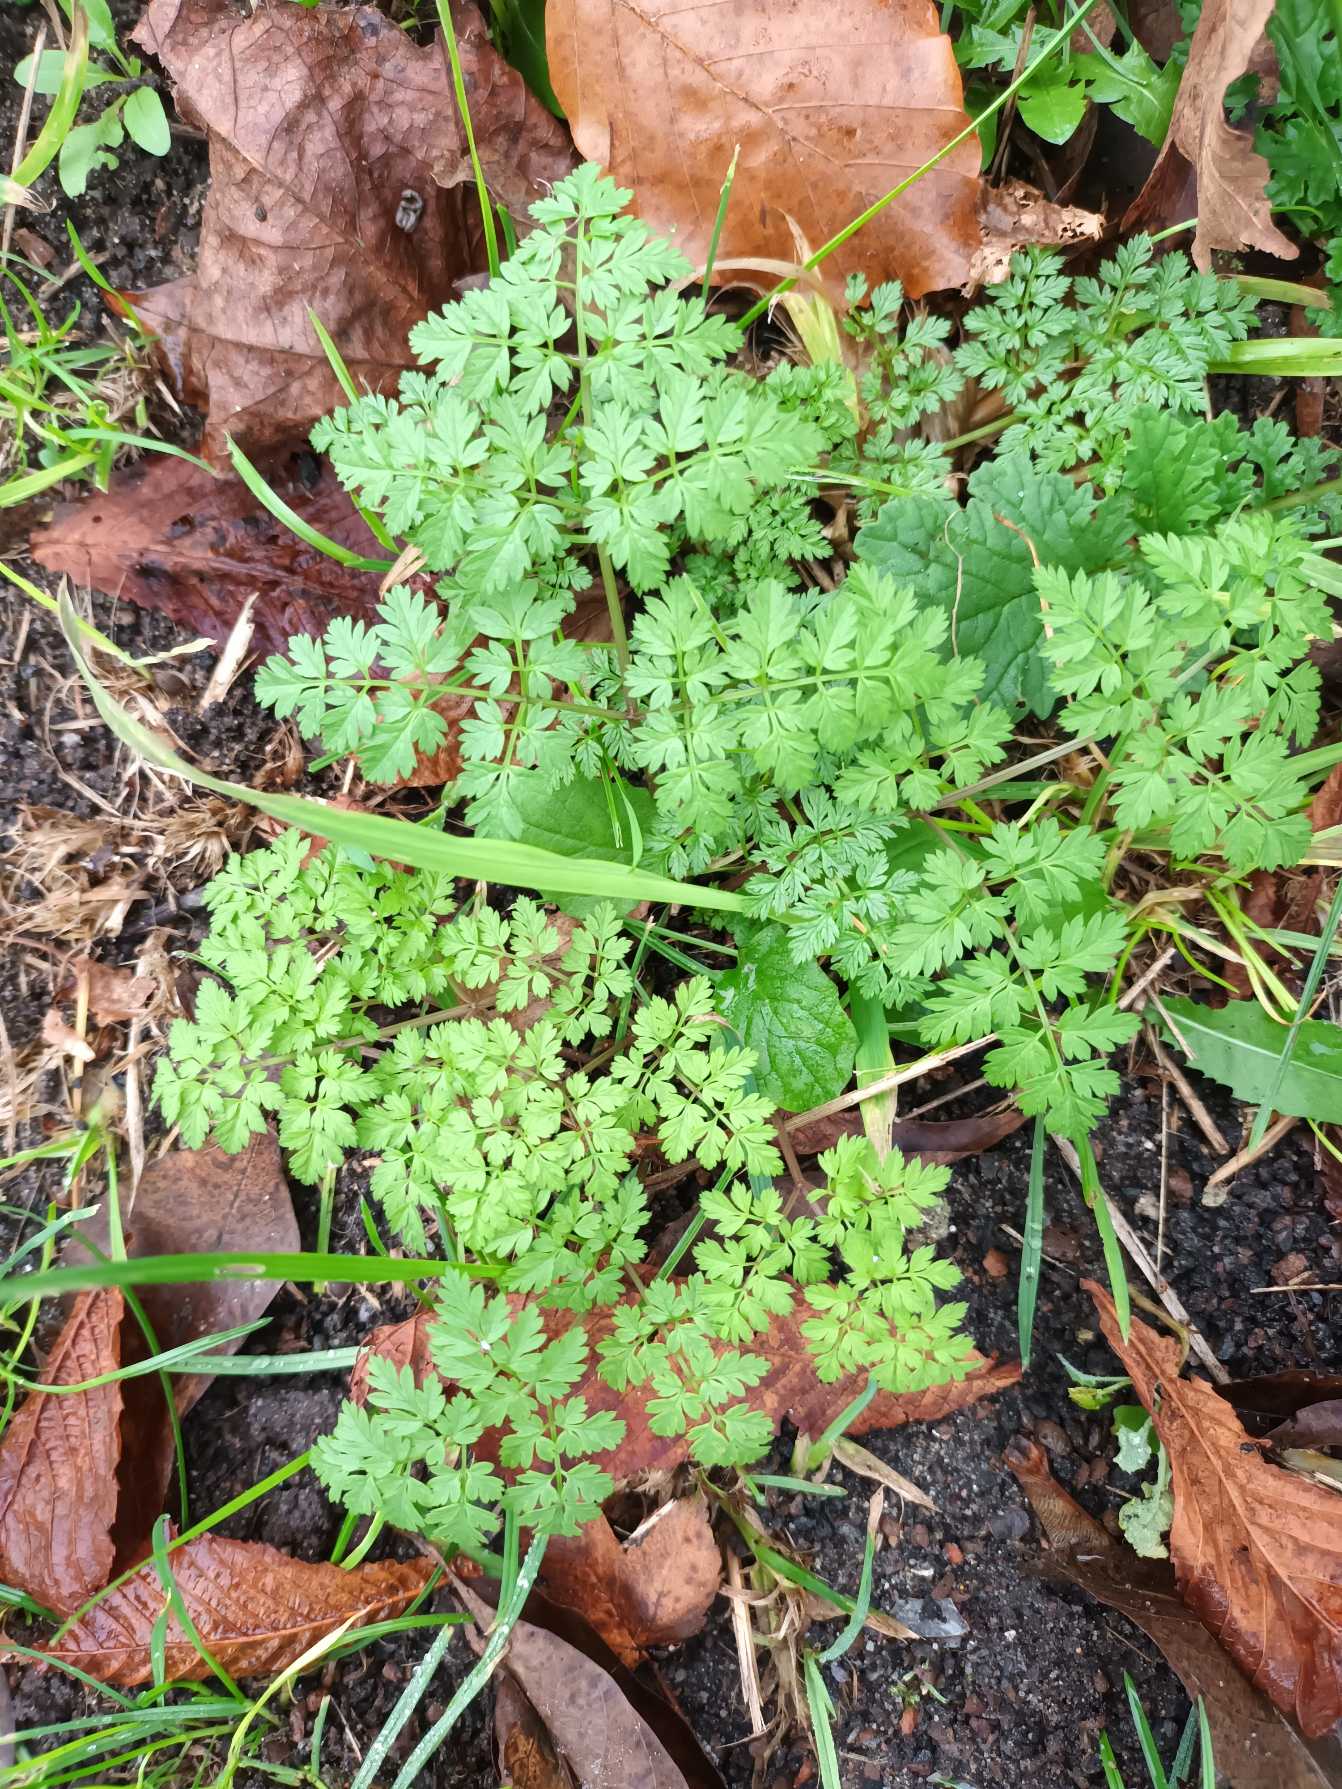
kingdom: Plantae
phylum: Tracheophyta
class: Magnoliopsida
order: Apiales
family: Apiaceae
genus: Anthriscus
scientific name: Anthriscus sylvestris
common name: Vild kørvel
